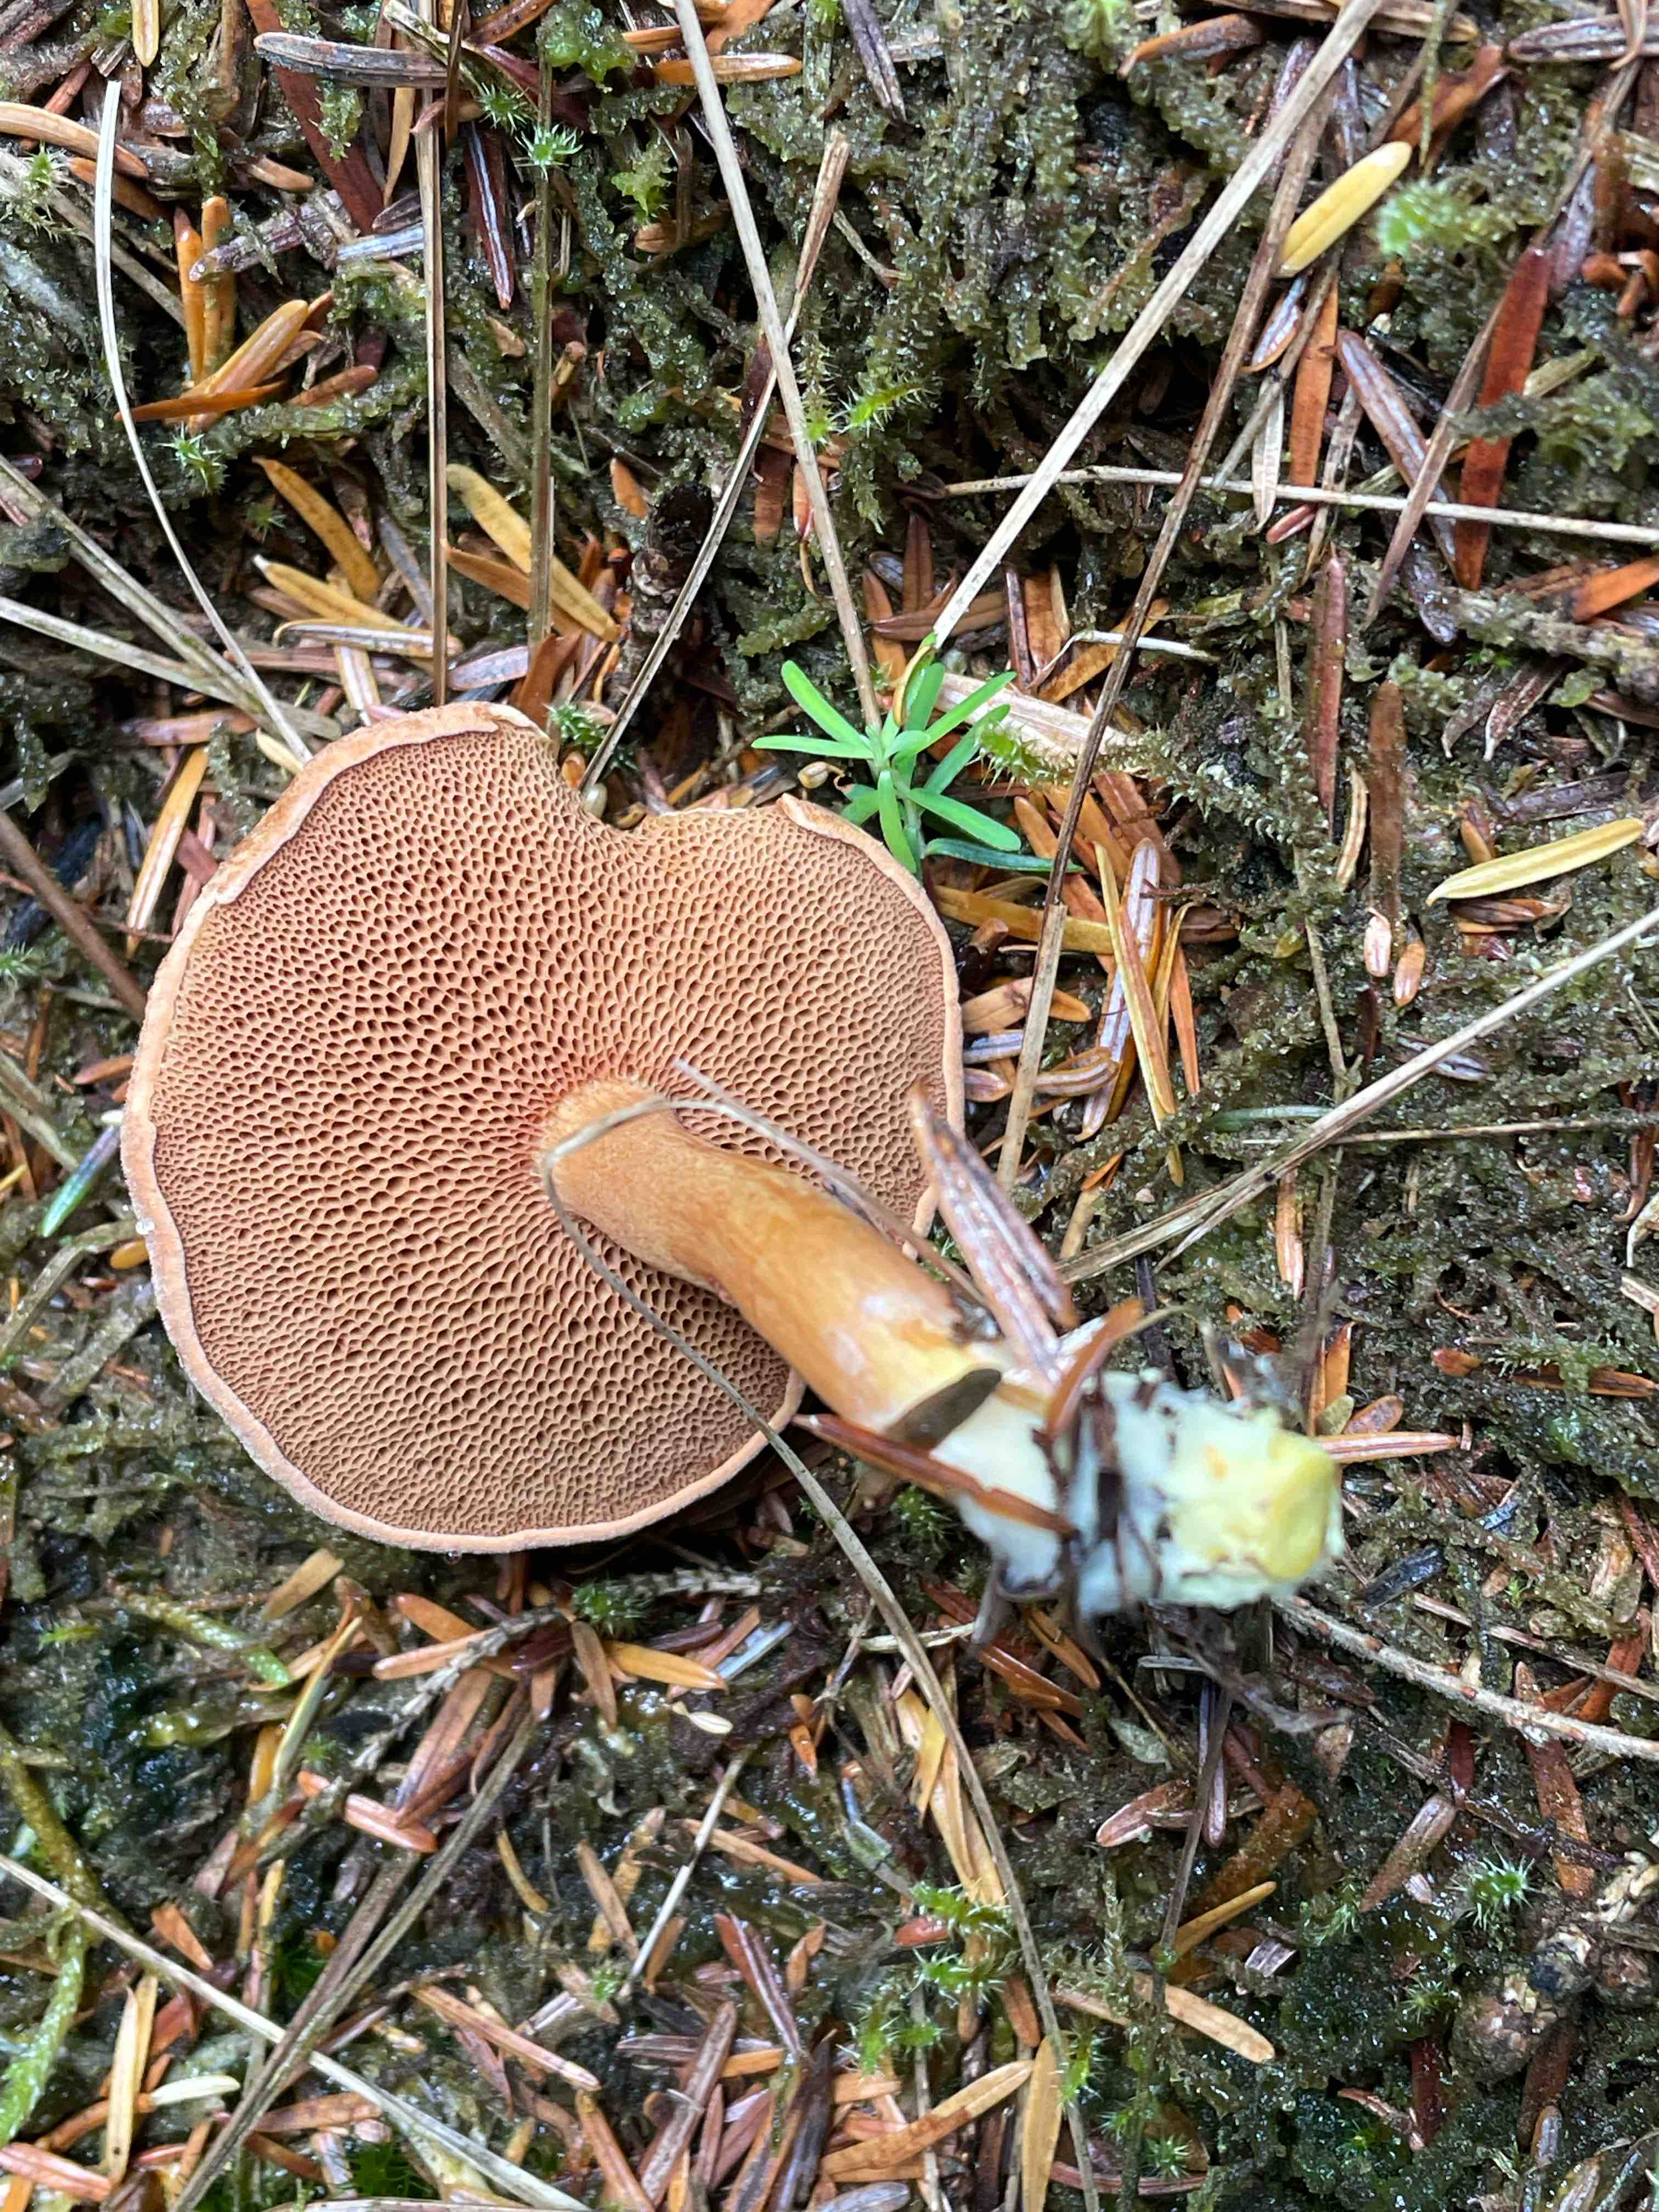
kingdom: Fungi
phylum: Basidiomycota
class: Agaricomycetes
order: Boletales
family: Boletaceae
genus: Chalciporus
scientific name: Chalciporus piperatus
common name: peberrørhat
